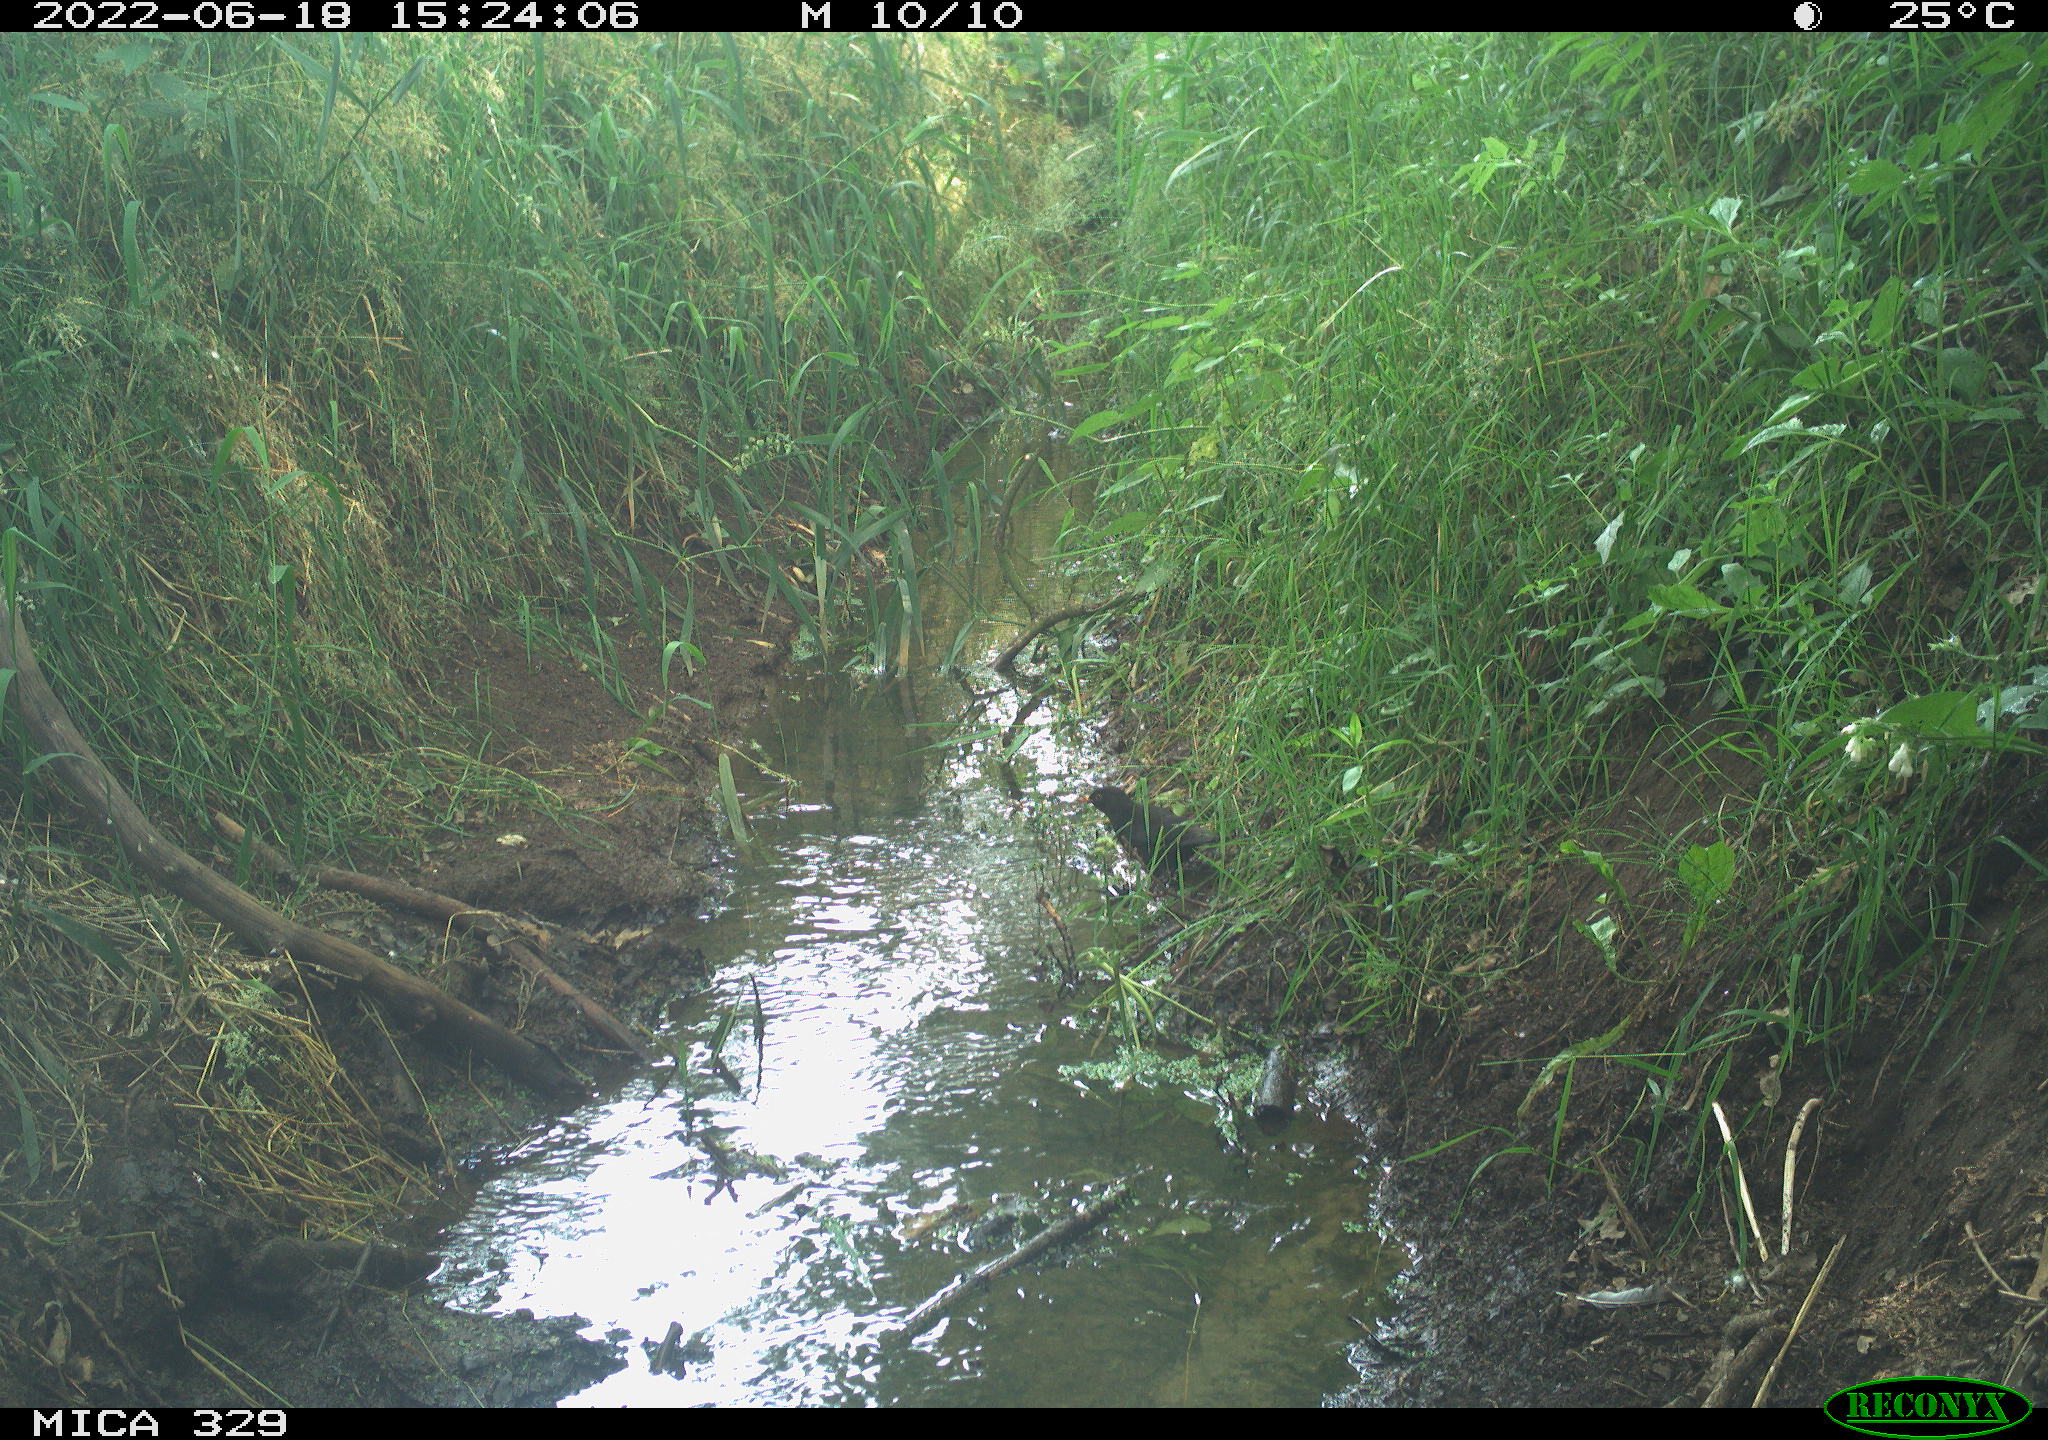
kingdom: Animalia
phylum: Chordata
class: Aves
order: Passeriformes
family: Turdidae
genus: Turdus
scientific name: Turdus merula
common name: Common blackbird
